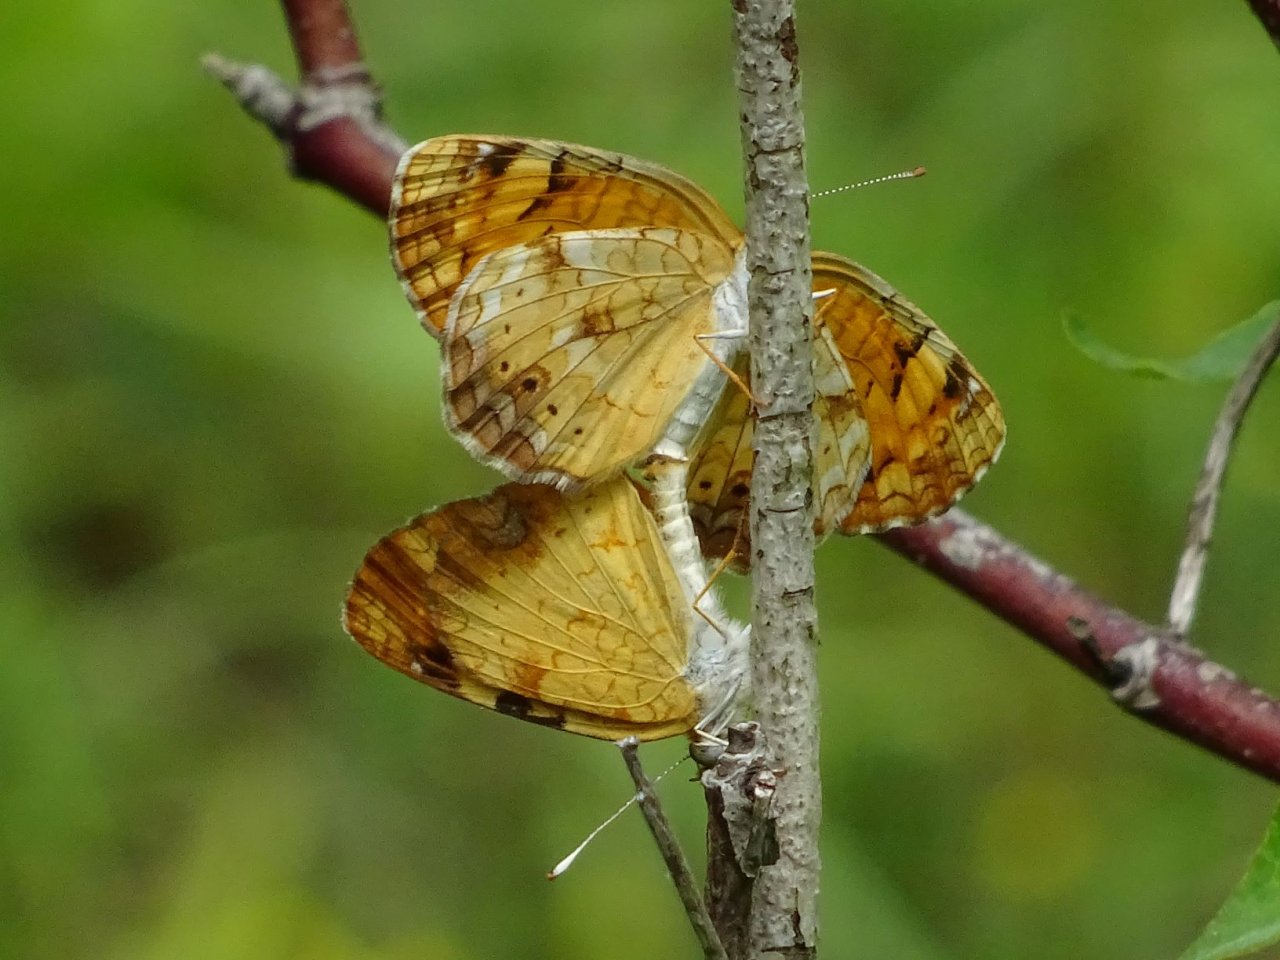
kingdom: Animalia
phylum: Arthropoda
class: Insecta
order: Lepidoptera
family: Nymphalidae
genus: Phyciodes
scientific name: Phyciodes tharos
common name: Northern Crescent
